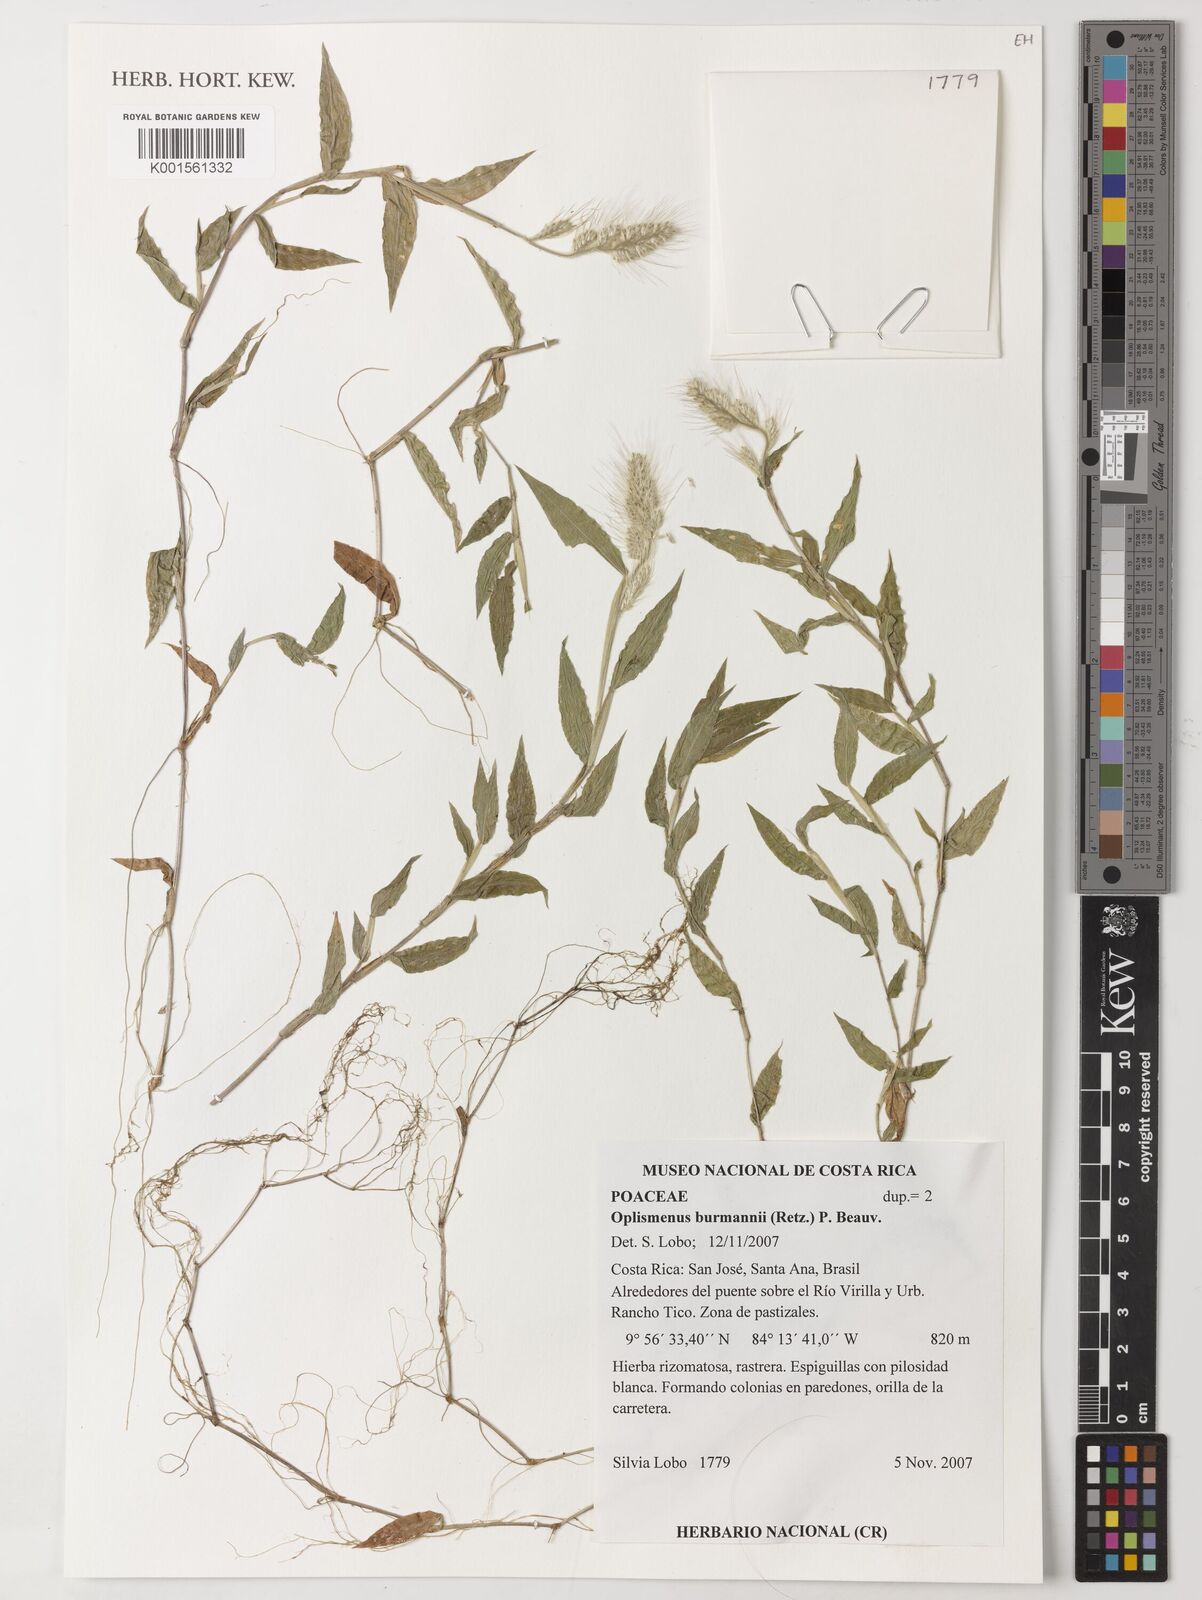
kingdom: Plantae
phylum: Tracheophyta
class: Liliopsida
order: Poales
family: Poaceae
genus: Oplismenus
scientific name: Oplismenus burmanni
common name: Burmann's basketgrass
